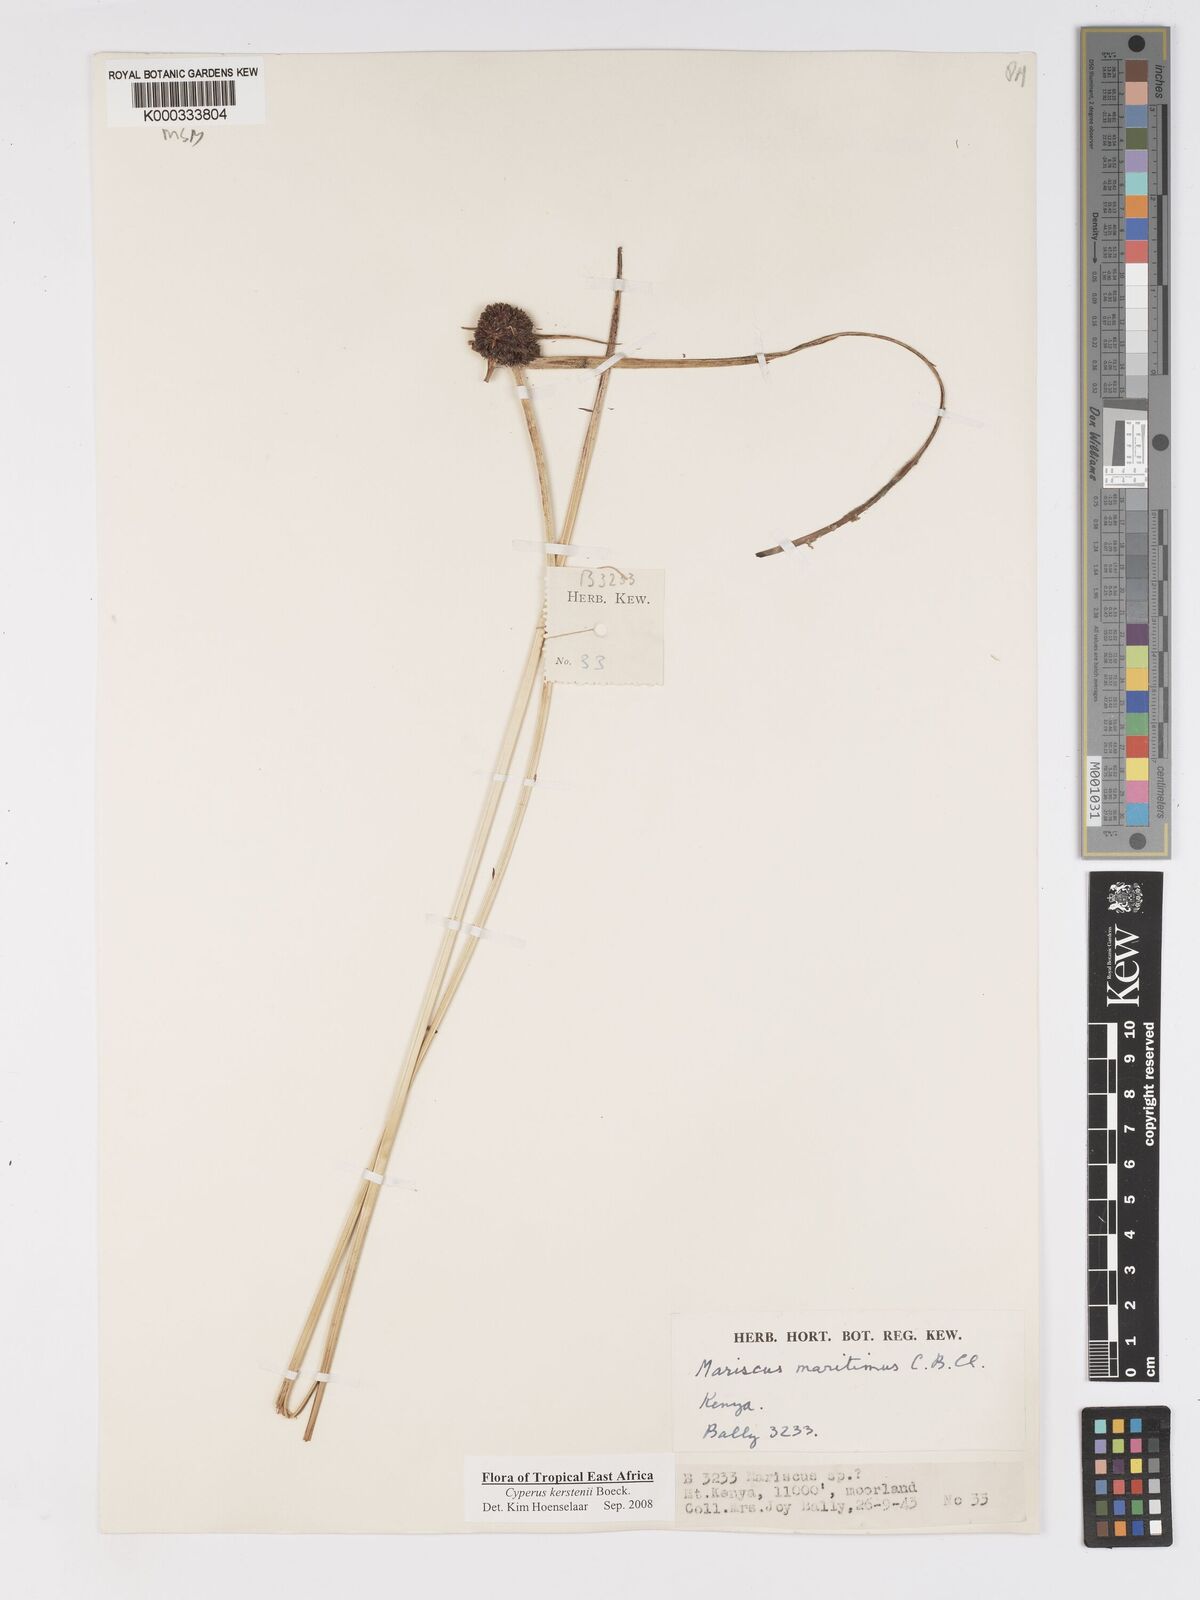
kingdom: Plantae
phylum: Tracheophyta
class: Liliopsida
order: Poales
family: Cyperaceae
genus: Cyperus
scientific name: Cyperus kerstenii
